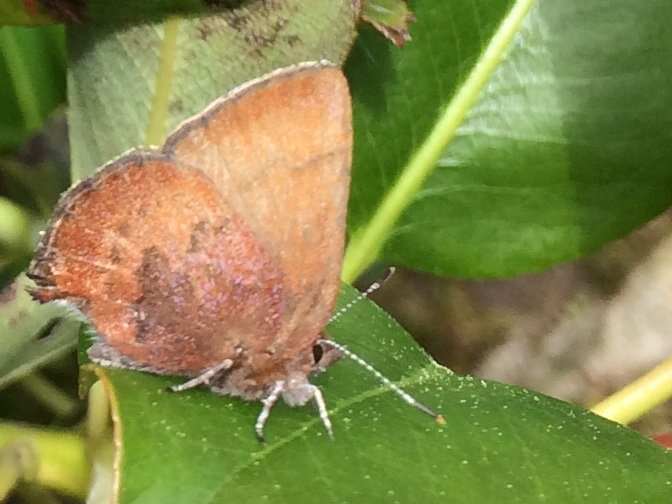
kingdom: Animalia
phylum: Arthropoda
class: Insecta
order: Lepidoptera
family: Lycaenidae
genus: Incisalia
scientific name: Incisalia irioides
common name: Brown Elfin
